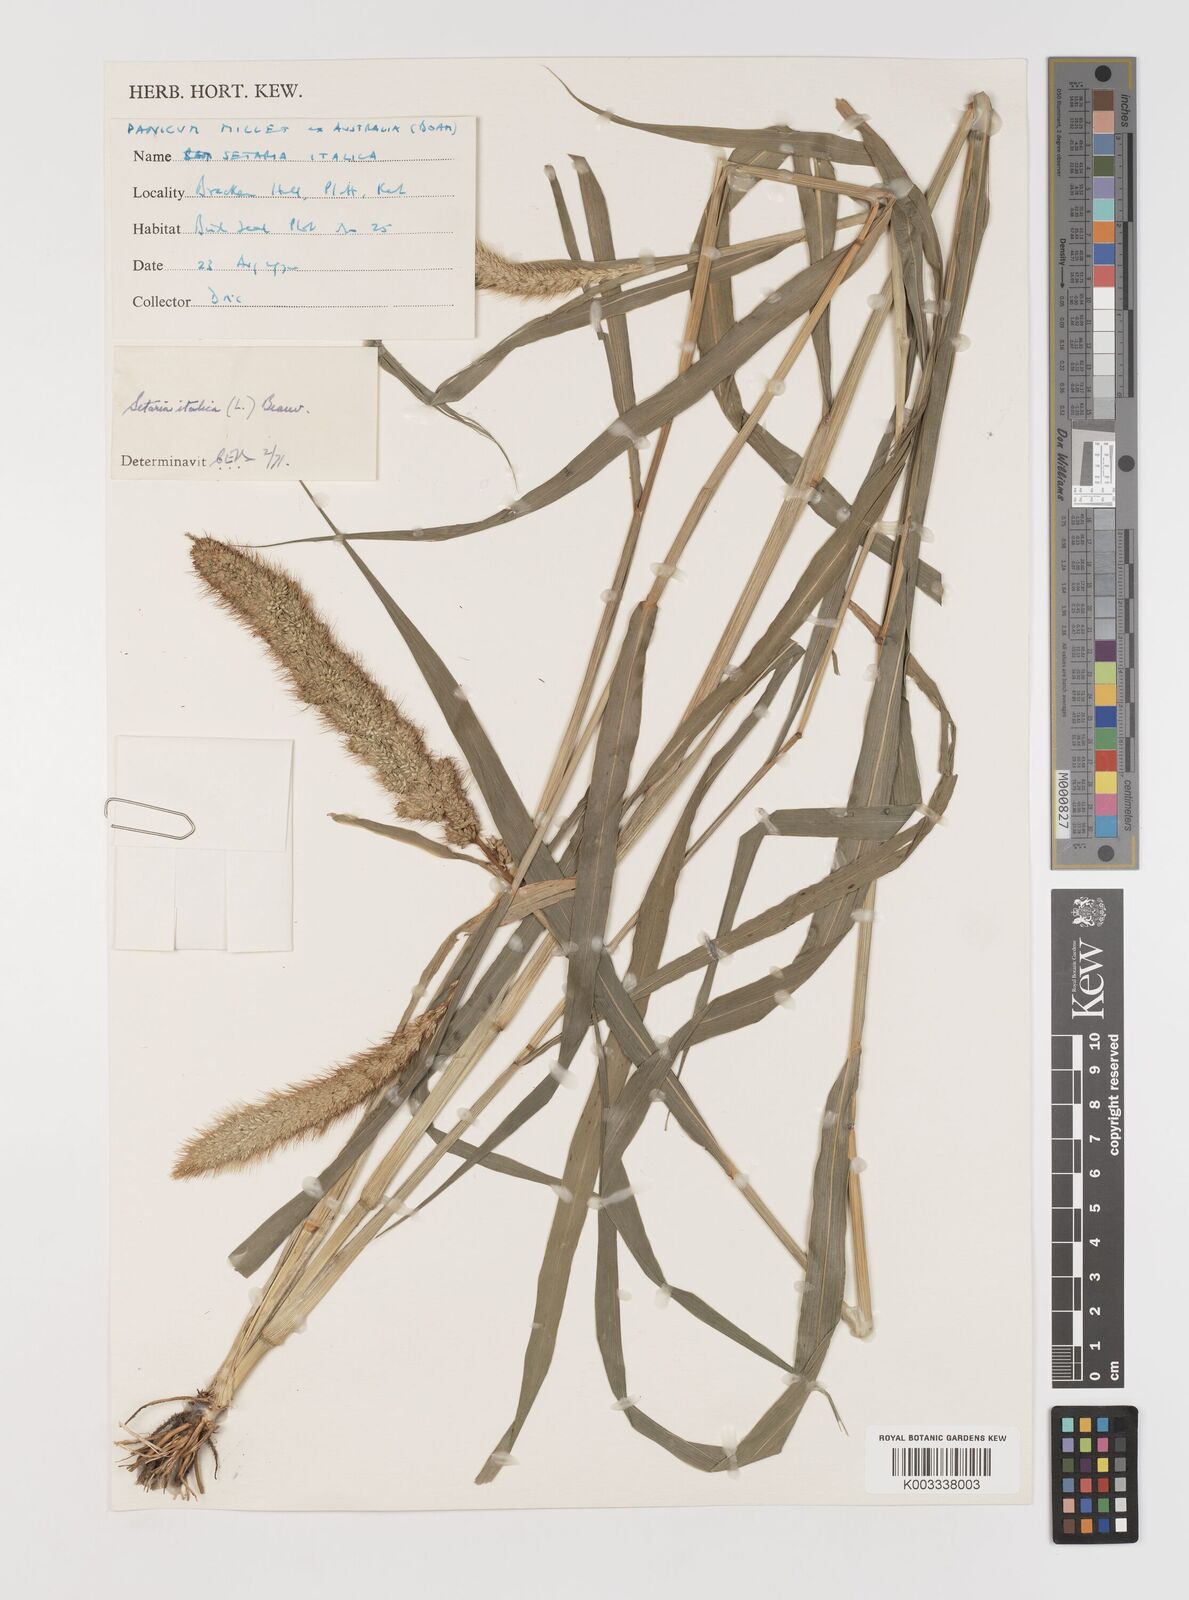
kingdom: Plantae
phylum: Tracheophyta
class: Liliopsida
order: Poales
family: Poaceae
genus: Setaria
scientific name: Setaria italica
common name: Foxtail bristle-grass
